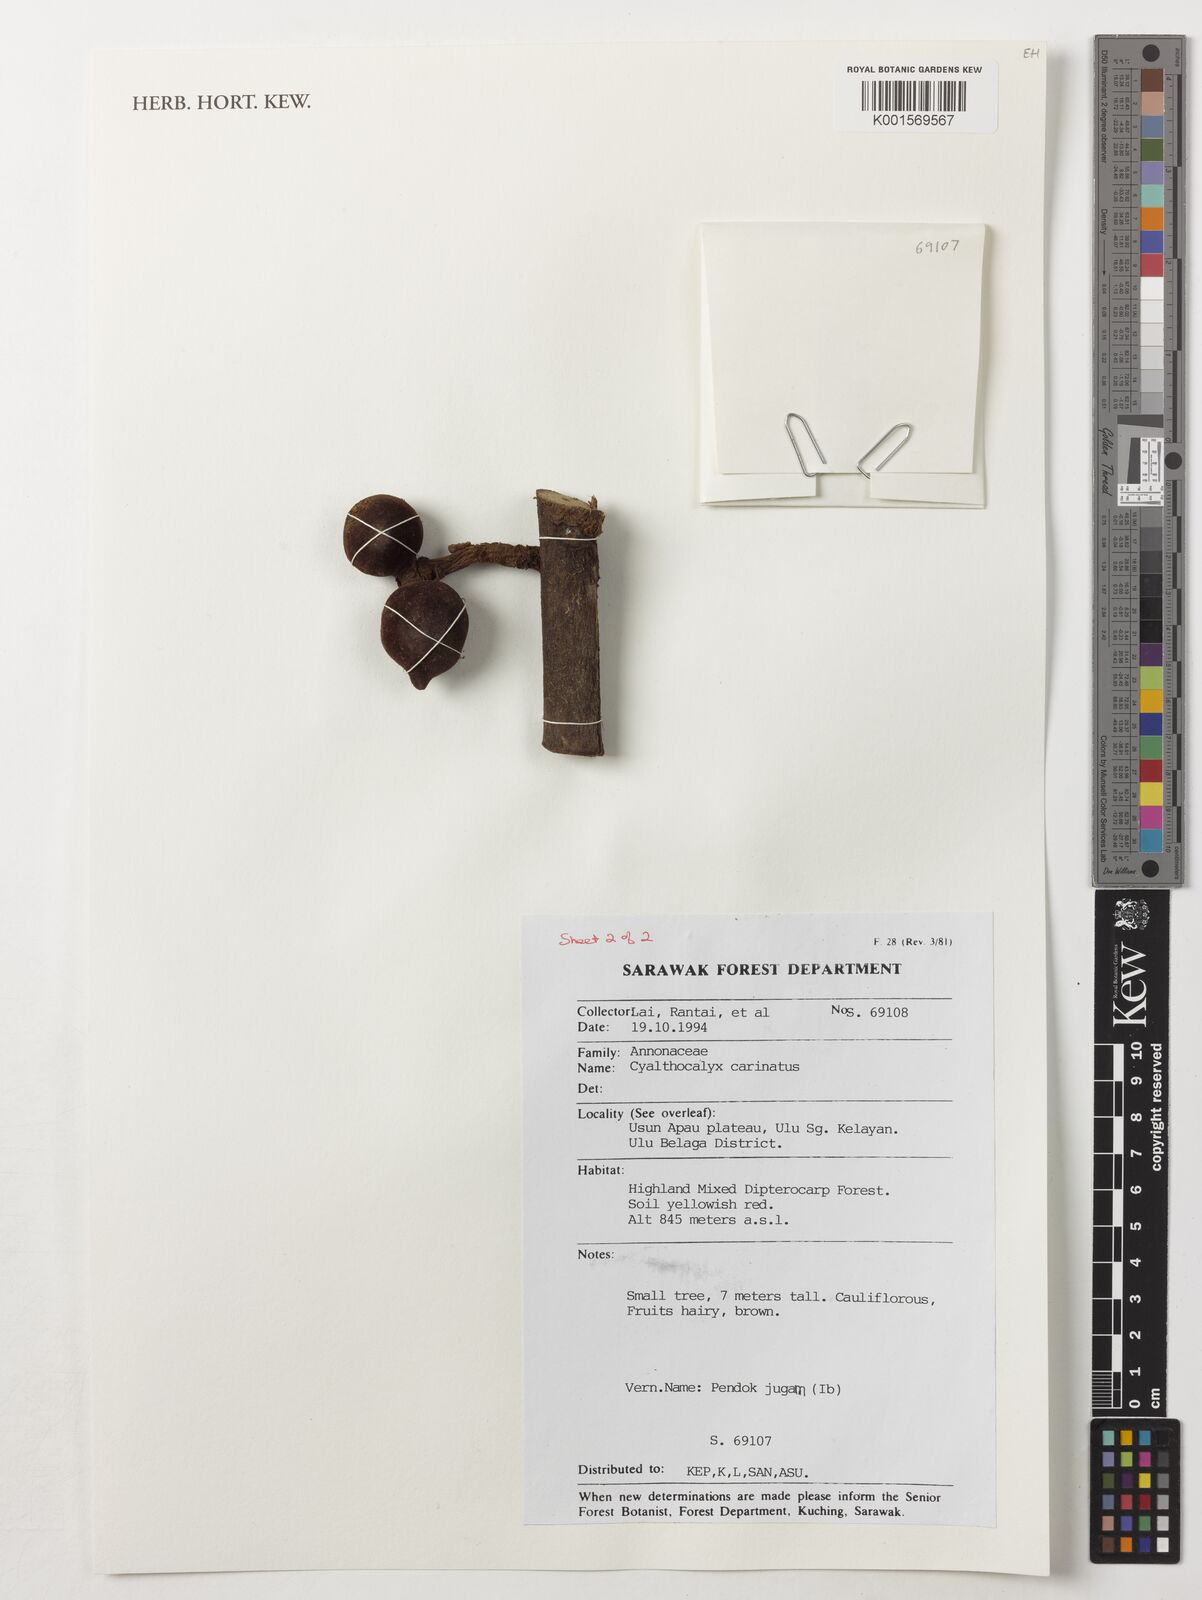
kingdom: Plantae
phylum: Tracheophyta
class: Magnoliopsida
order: Magnoliales
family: Annonaceae
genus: Drepananthus
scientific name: Drepananthus carinatus
